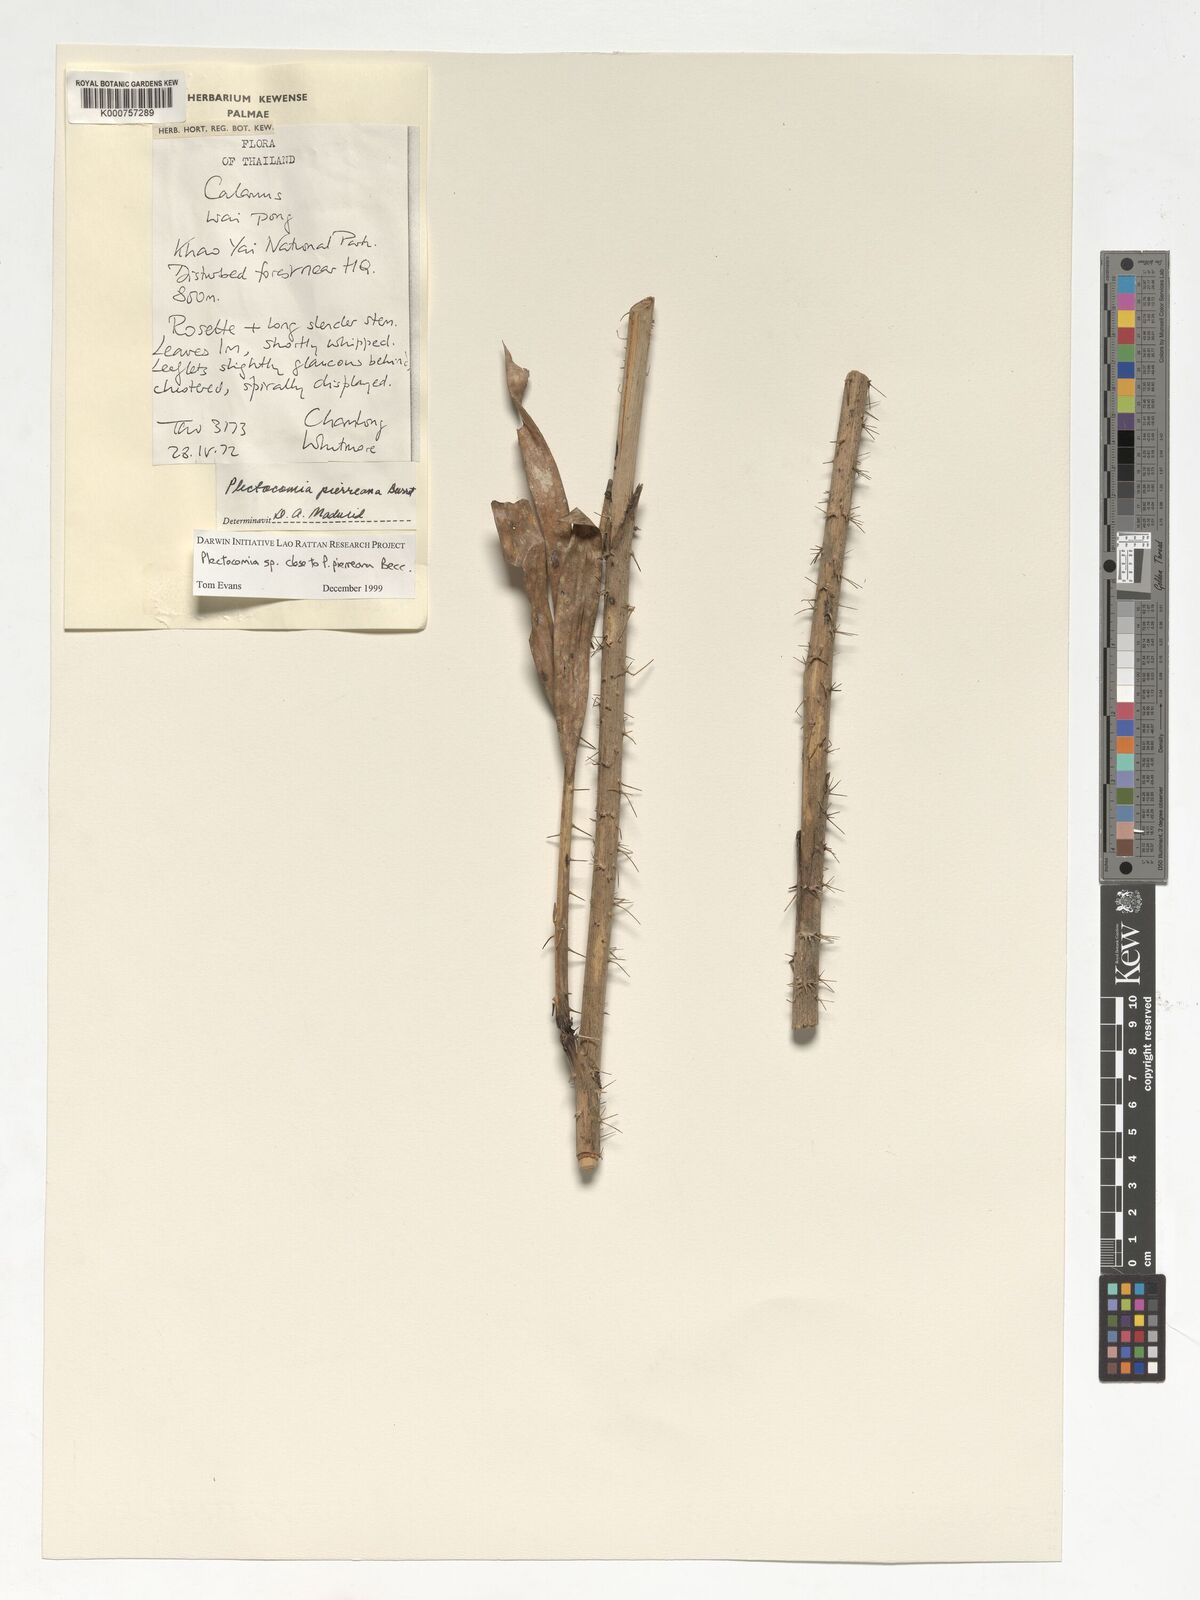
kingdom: Plantae
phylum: Tracheophyta
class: Liliopsida
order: Arecales
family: Arecaceae
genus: Plectocomia
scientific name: Plectocomia pierreana
